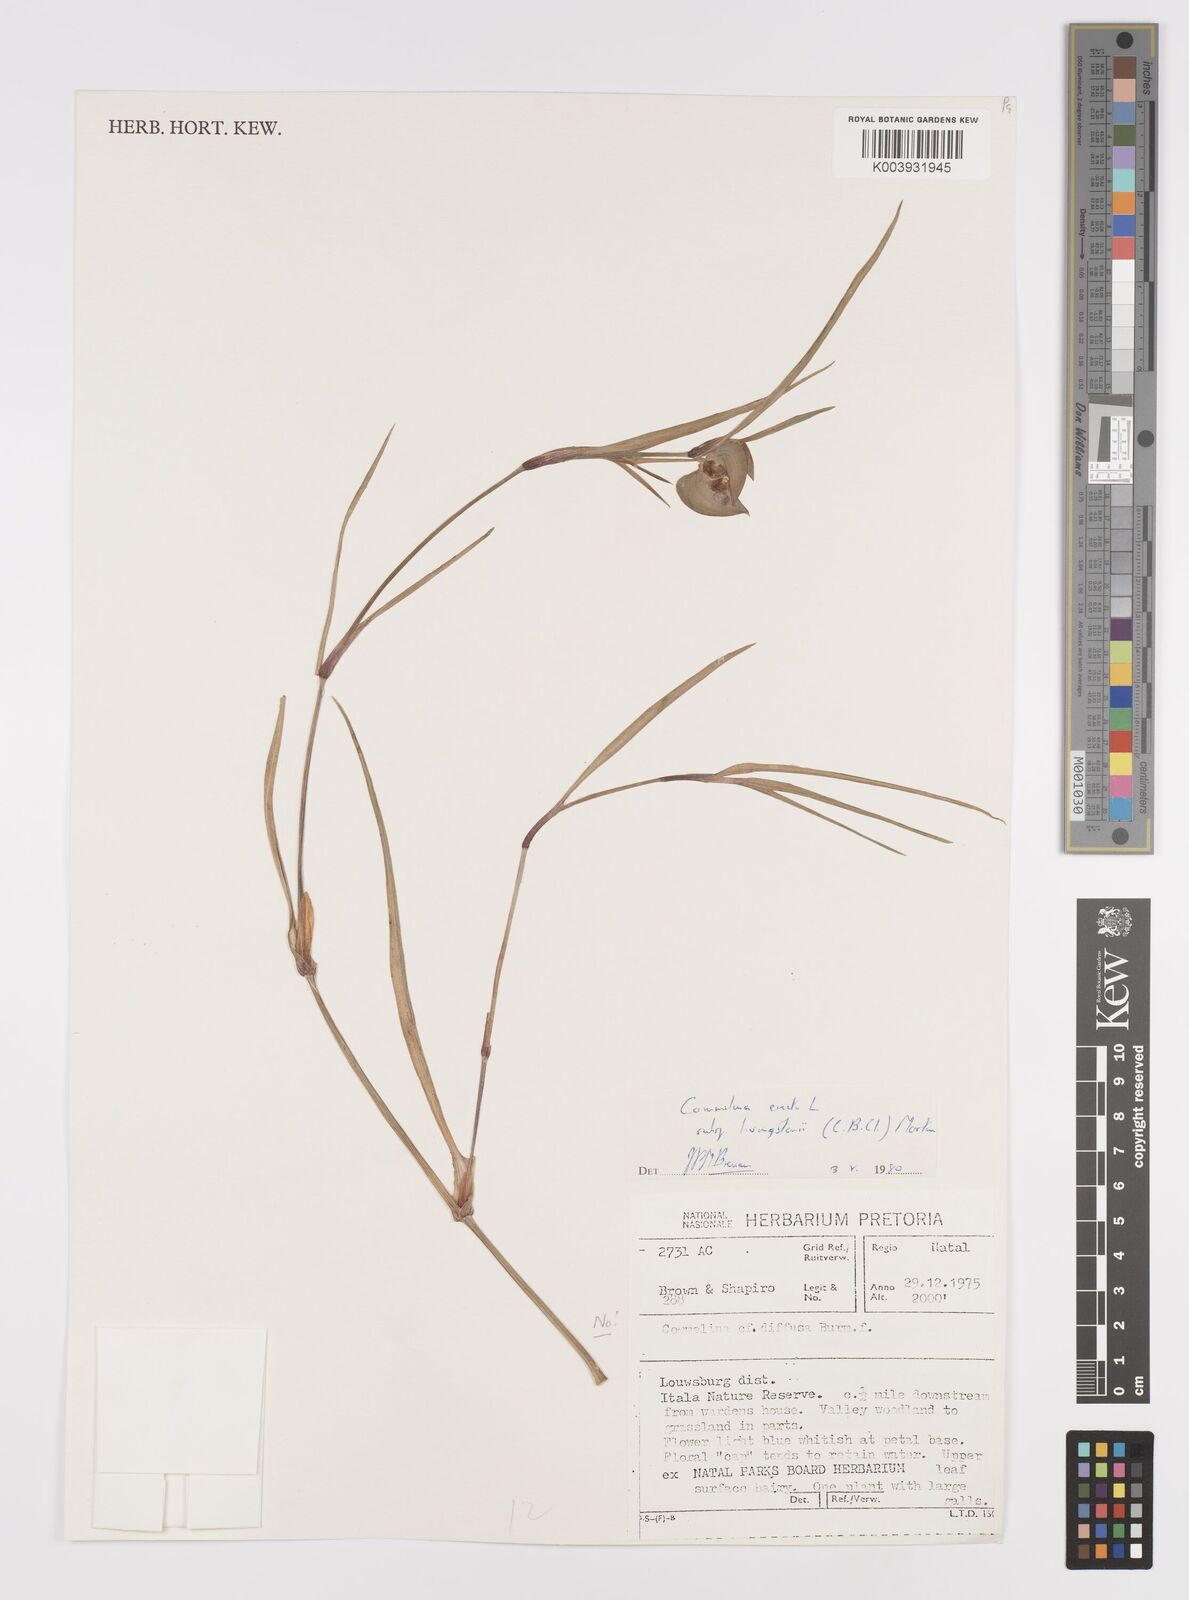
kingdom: Plantae
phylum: Tracheophyta
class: Liliopsida
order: Commelinales
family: Commelinaceae
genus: Commelina
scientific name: Commelina erecta
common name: Blousel blommetjie
